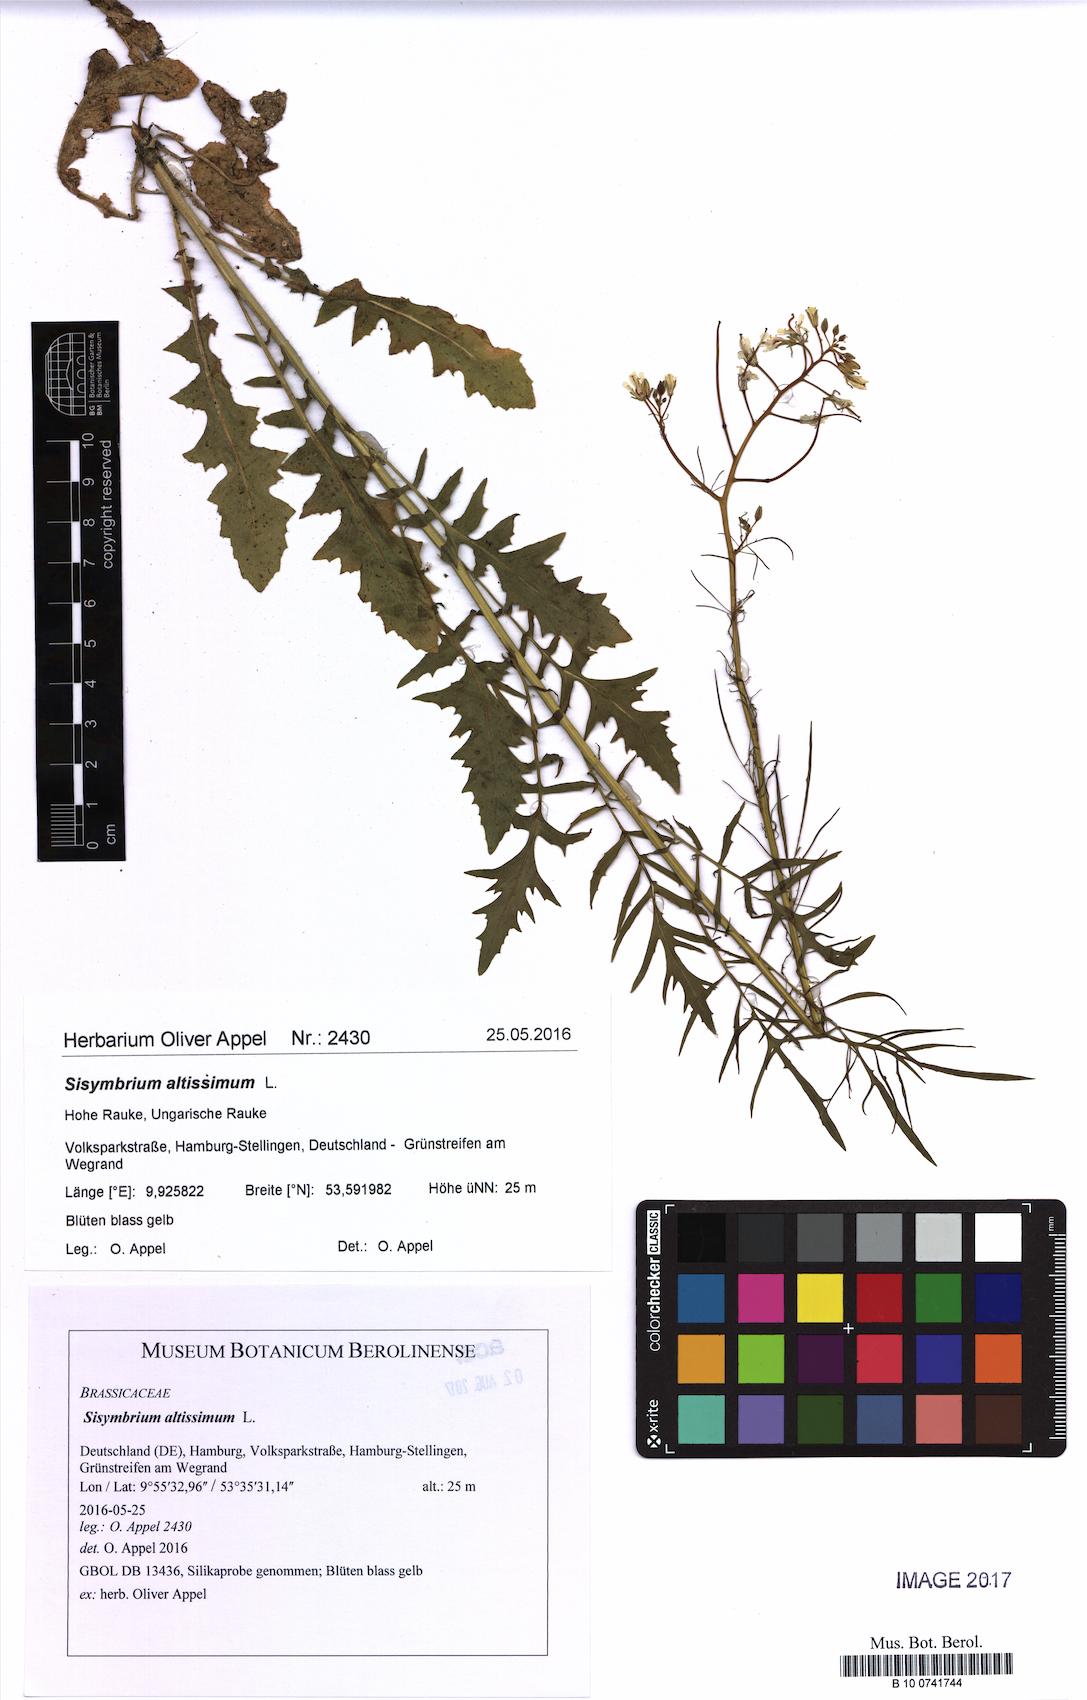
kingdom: Plantae
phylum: Tracheophyta
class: Magnoliopsida
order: Brassicales
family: Brassicaceae
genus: Sisymbrium
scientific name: Sisymbrium altissimum
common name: Tall rocket
